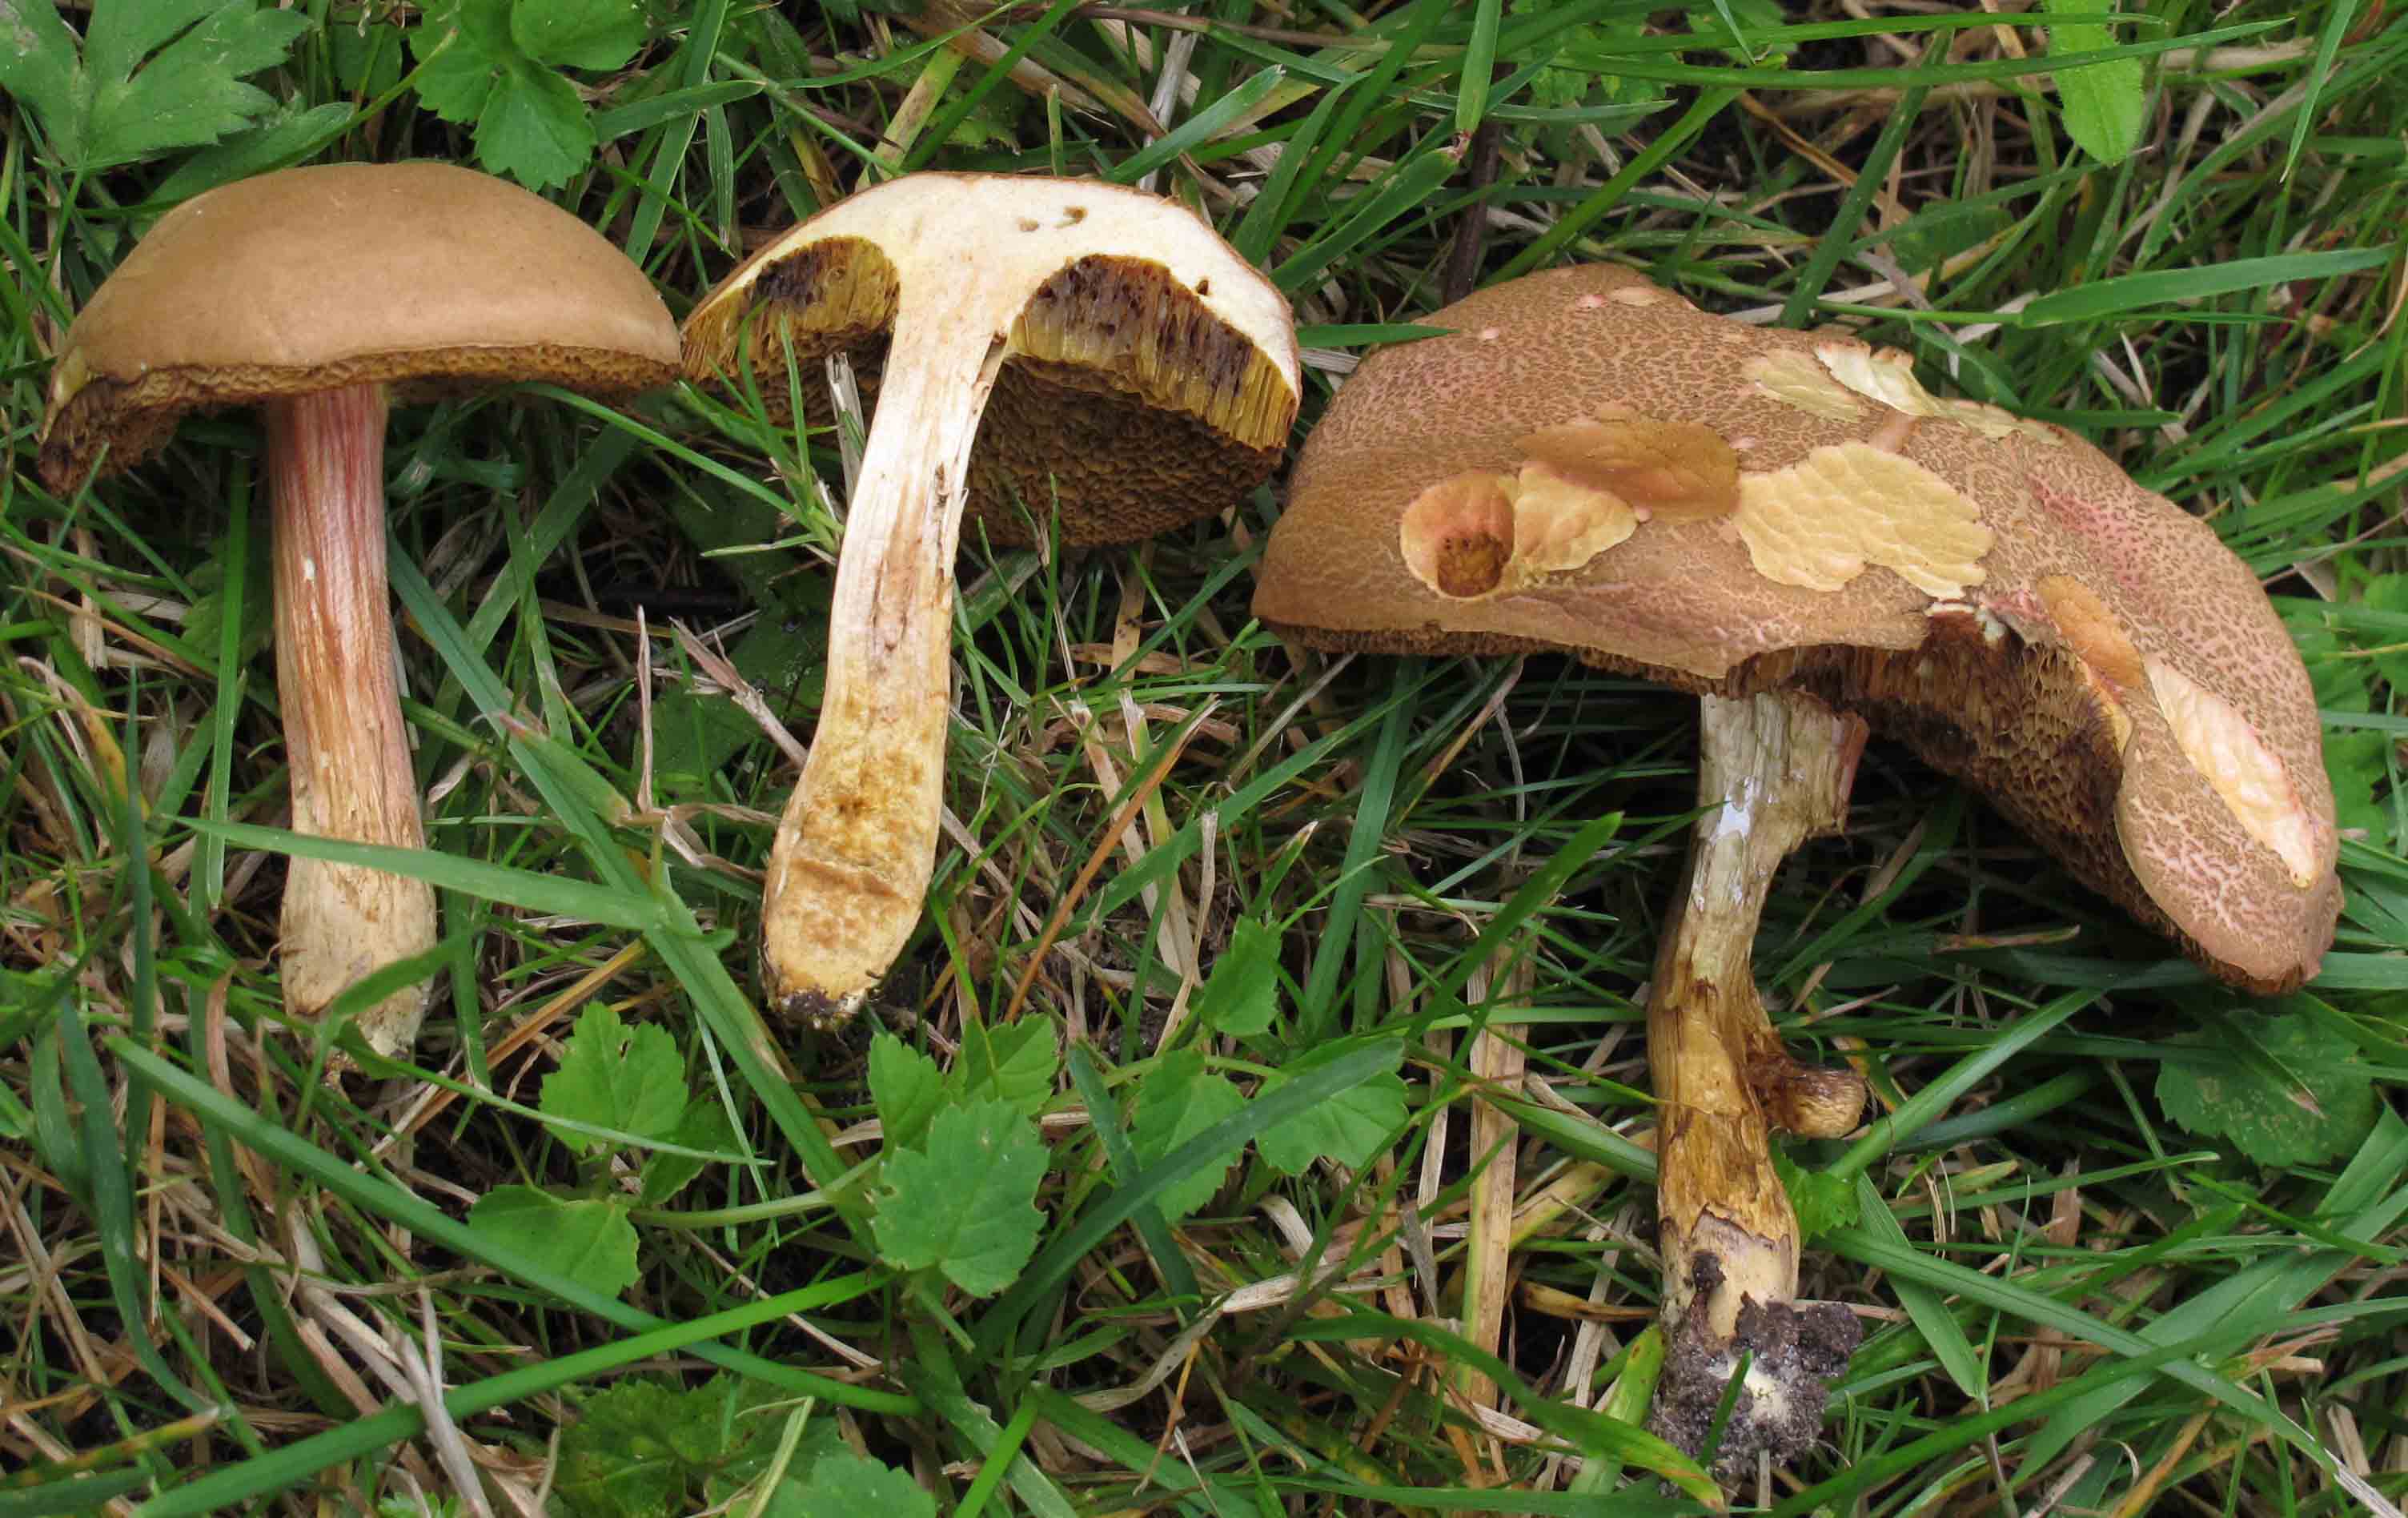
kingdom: Fungi
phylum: Basidiomycota
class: Agaricomycetes
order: Boletales
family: Boletaceae
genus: Hortiboletus
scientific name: Hortiboletus engelii
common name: fersken-rørhat
